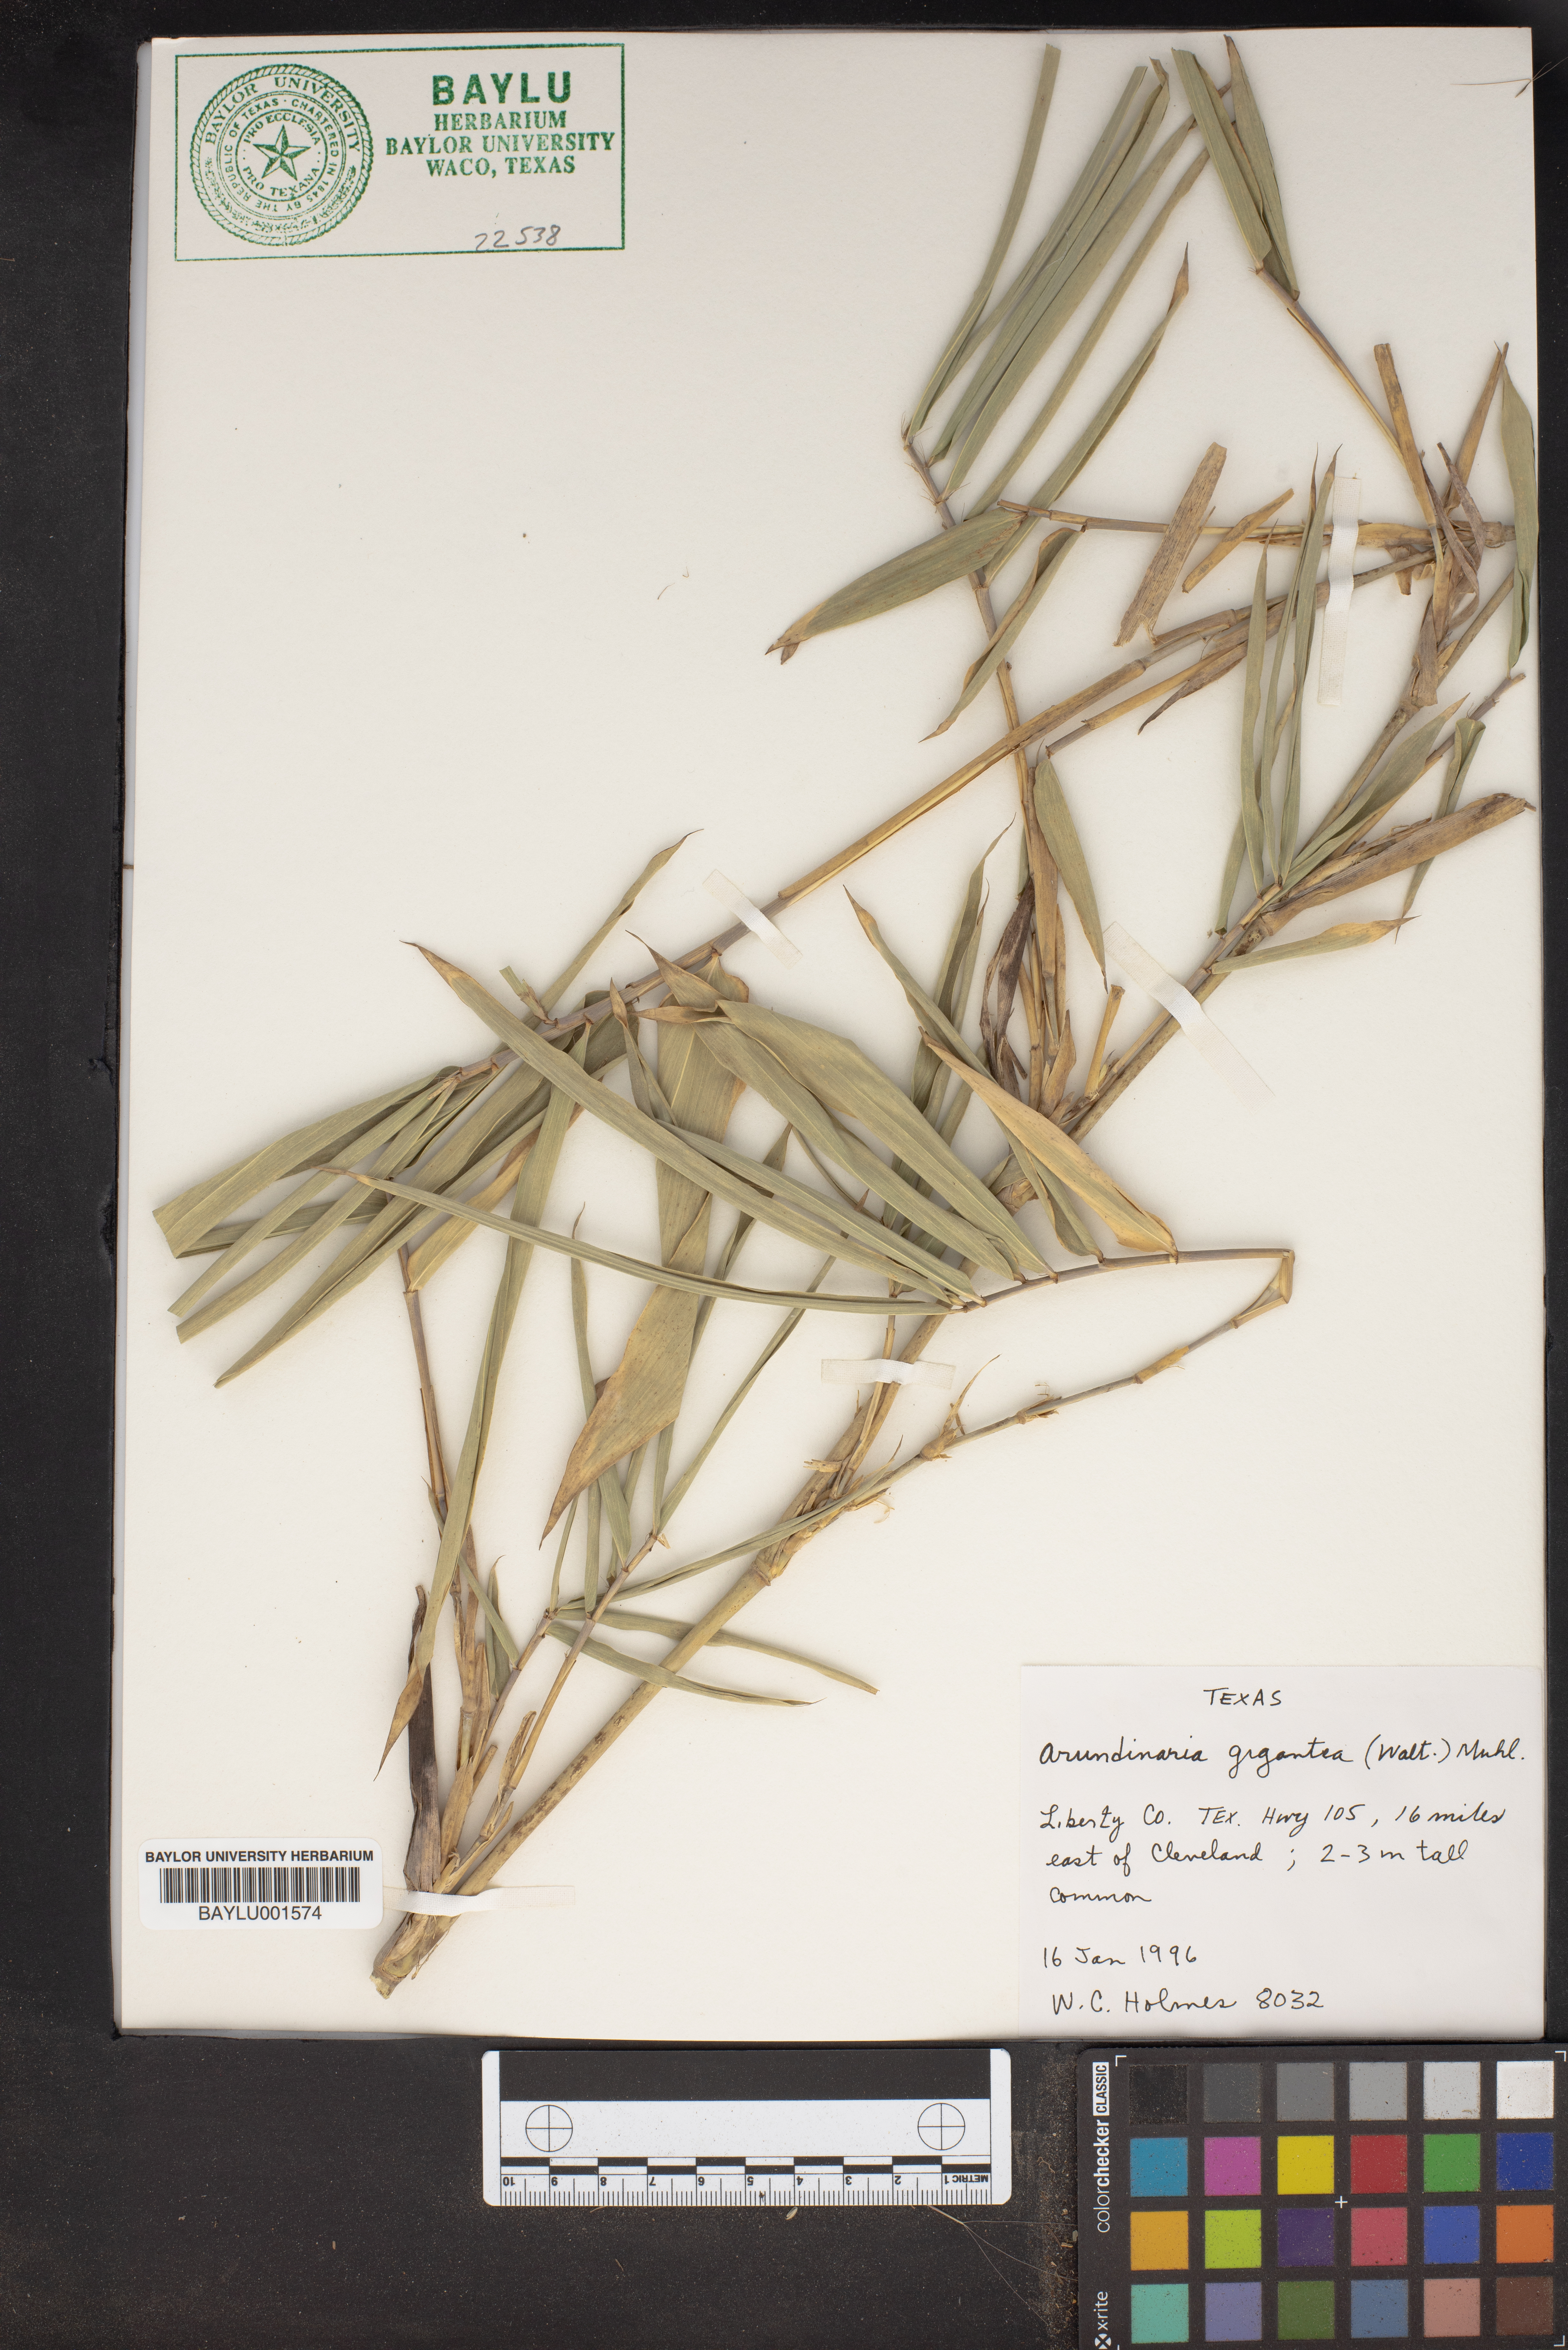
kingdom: Plantae
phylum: Tracheophyta
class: Liliopsida
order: Poales
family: Poaceae
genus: Arundinaria
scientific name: Arundinaria gigantea
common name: Giant cane
